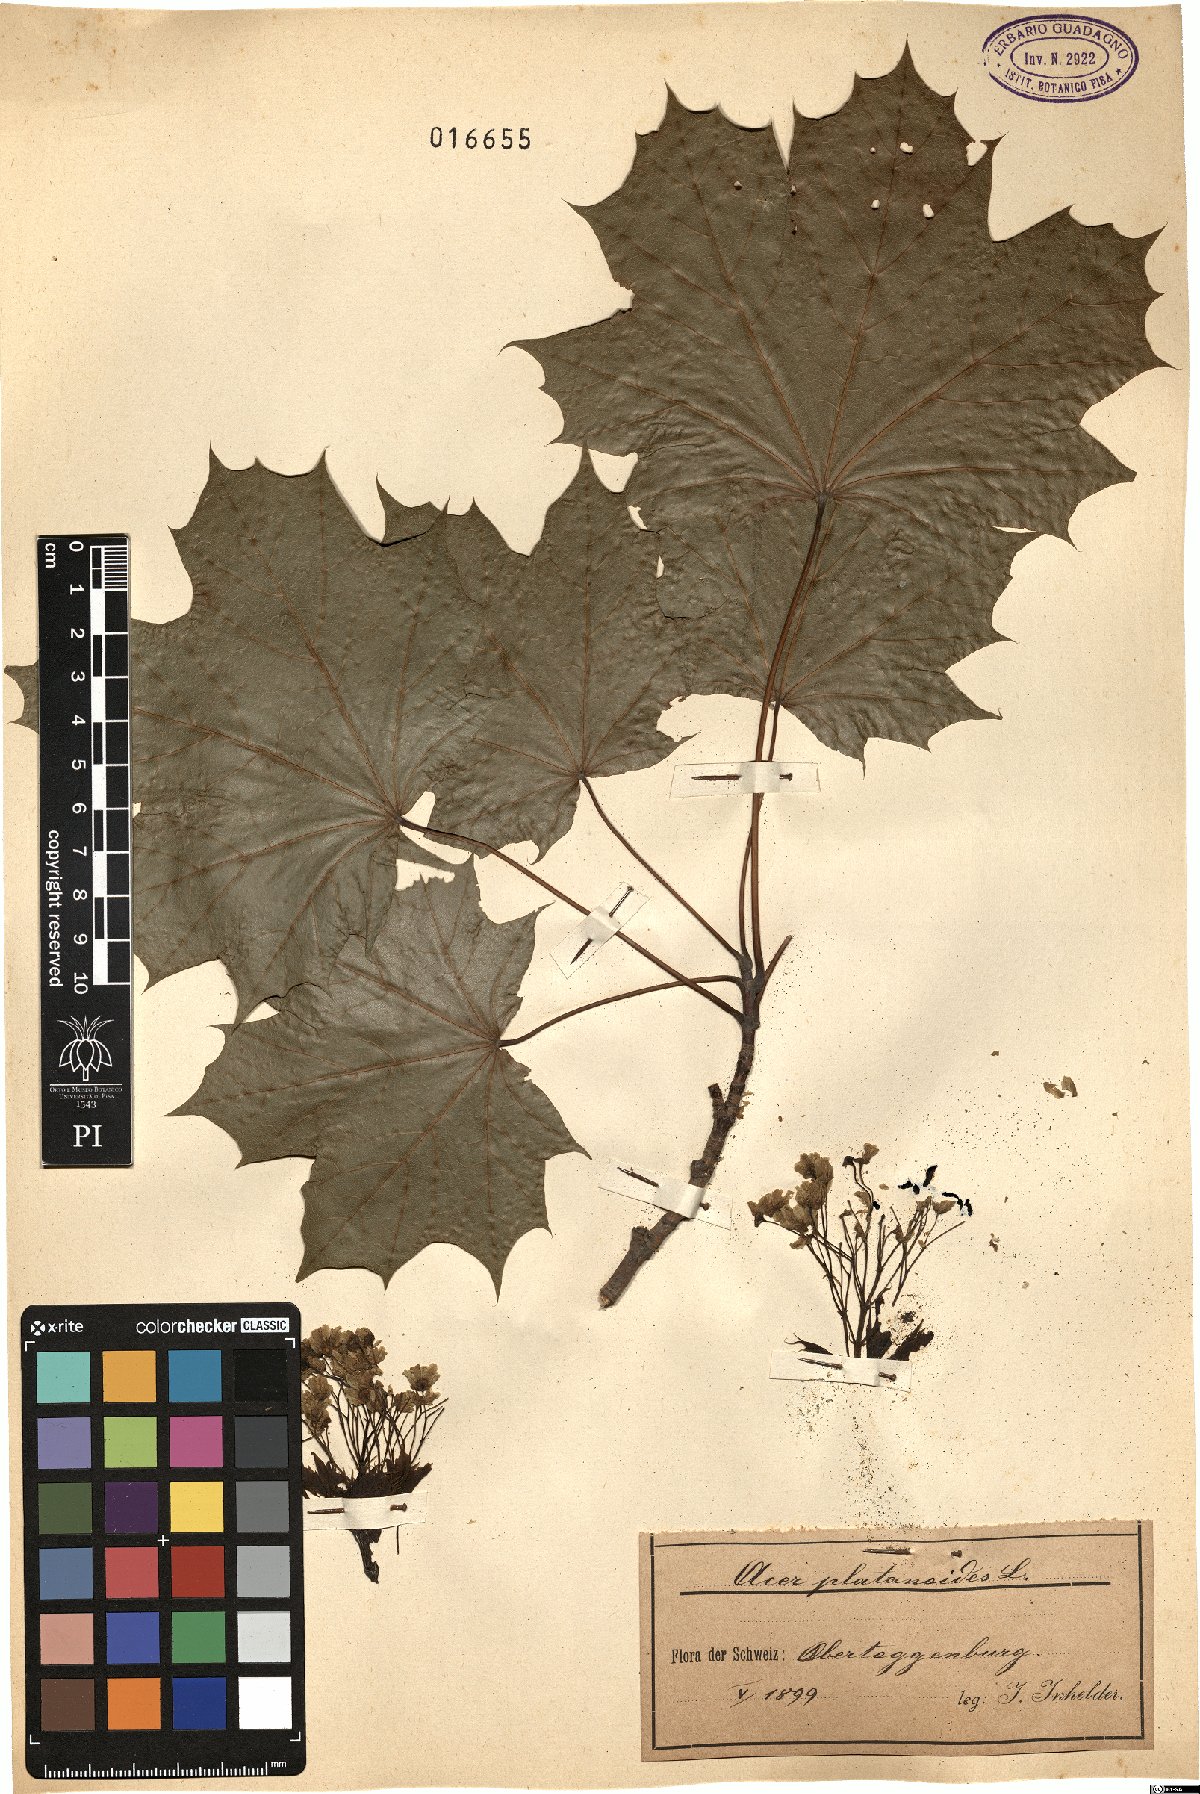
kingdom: Plantae
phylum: Tracheophyta
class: Magnoliopsida
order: Sapindales
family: Sapindaceae
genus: Acer
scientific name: Acer platanoides
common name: Norway maple
